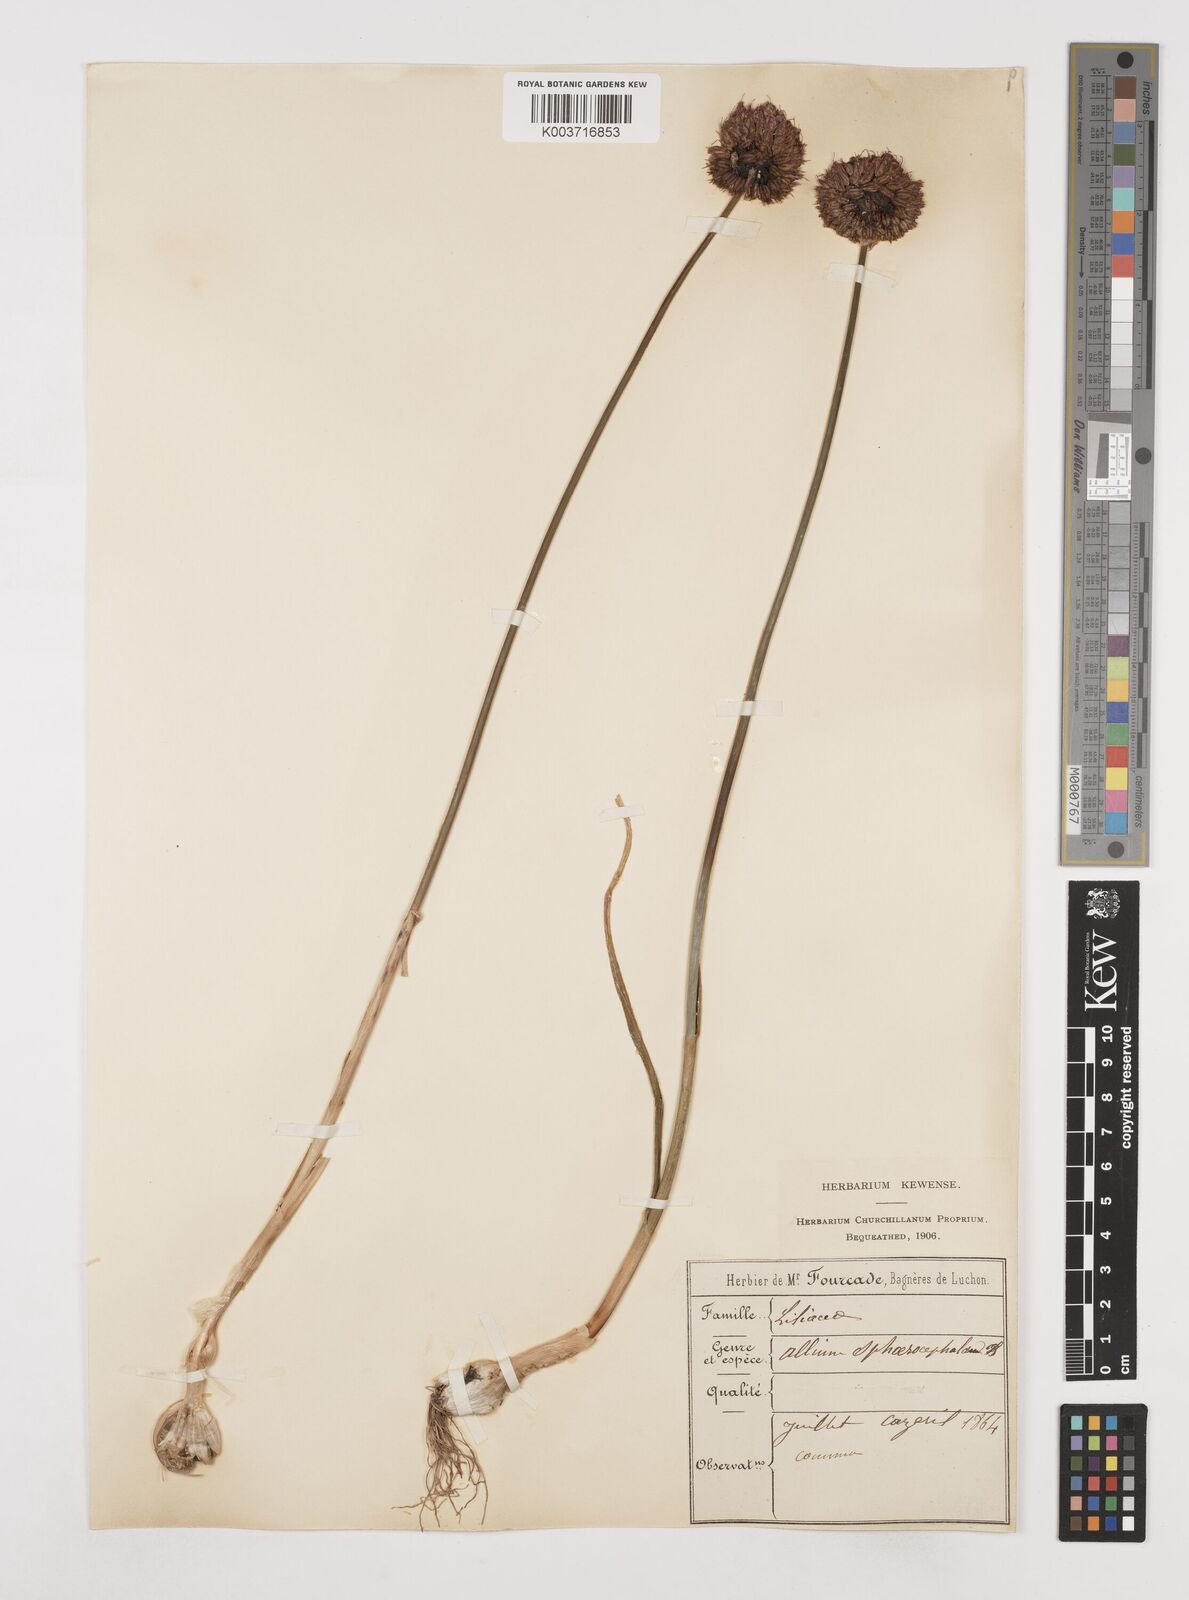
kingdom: Plantae
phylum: Tracheophyta
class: Liliopsida
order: Asparagales
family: Amaryllidaceae
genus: Allium
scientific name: Allium sphaerocephalon
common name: Round-headed leek
